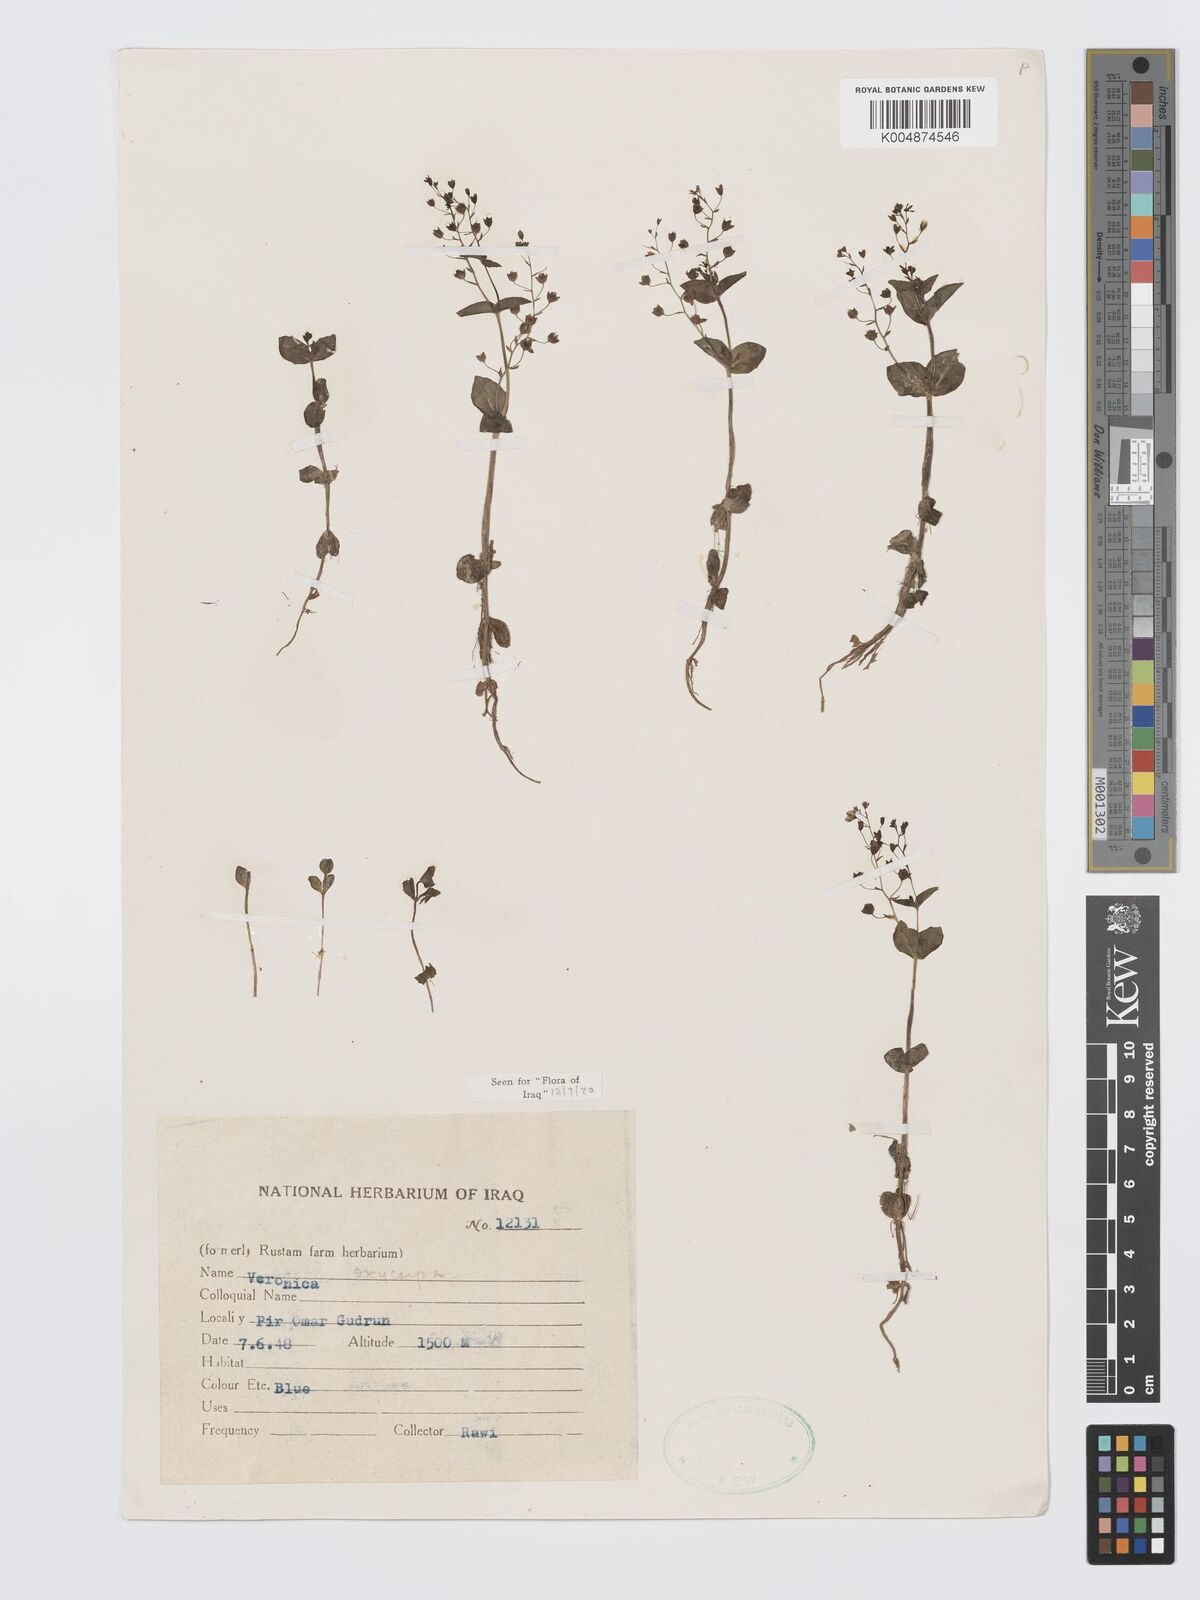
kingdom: Plantae
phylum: Tracheophyta
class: Magnoliopsida
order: Lamiales
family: Plantaginaceae
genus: Veronica
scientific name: Veronica
